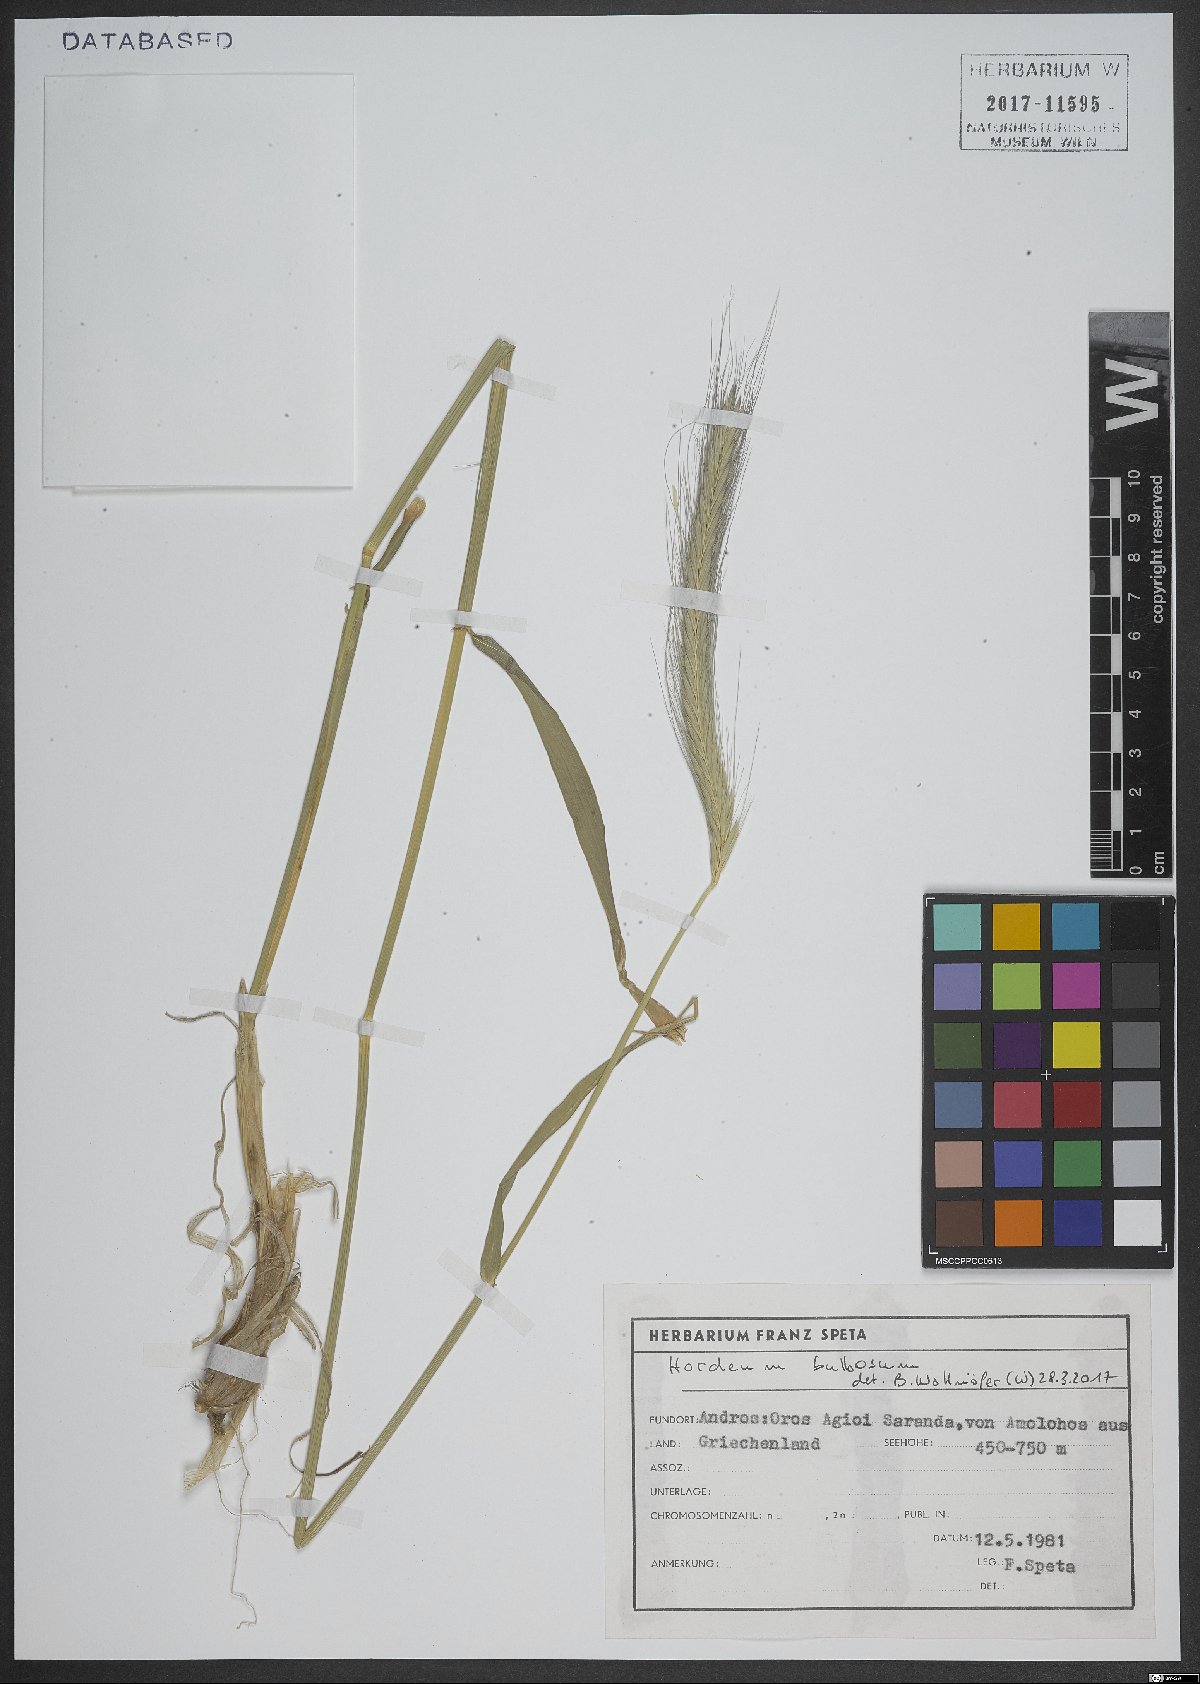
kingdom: Plantae
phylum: Tracheophyta
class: Liliopsida
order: Poales
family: Poaceae
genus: Hordeum
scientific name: Hordeum bulbosum
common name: Bulbous barley
